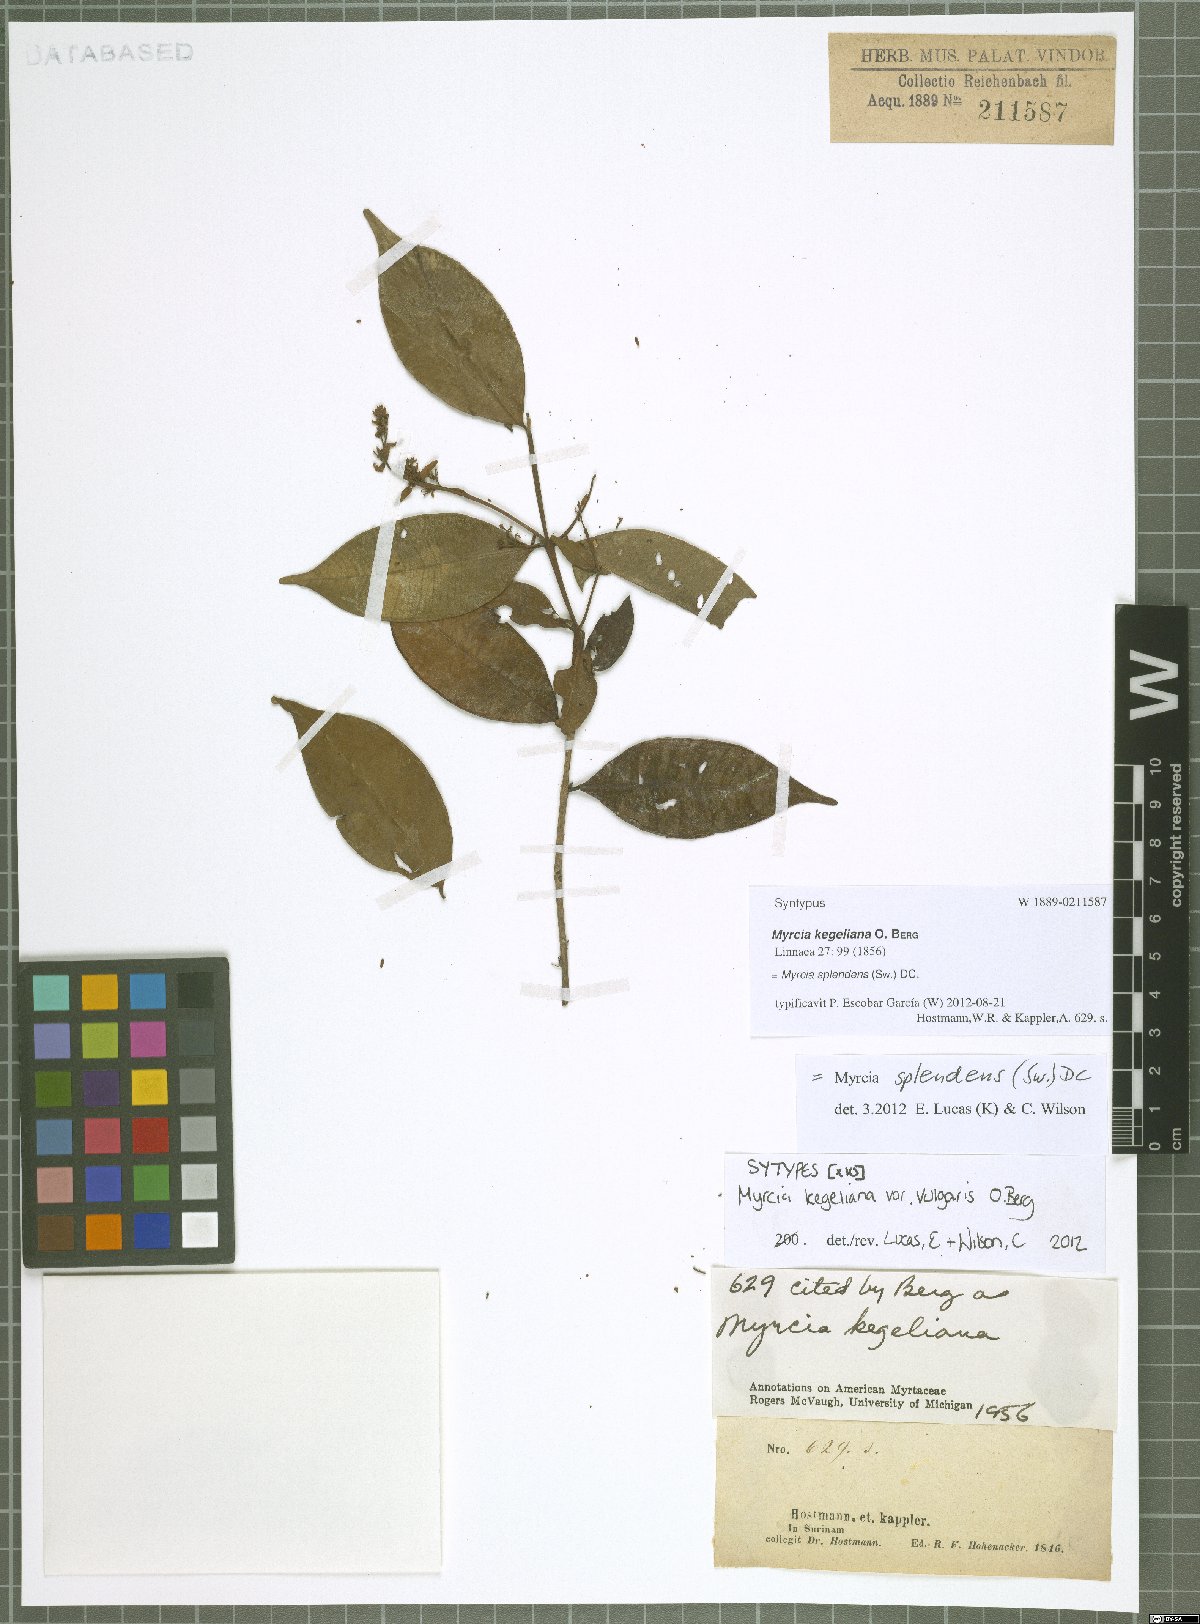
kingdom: Plantae
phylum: Tracheophyta
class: Magnoliopsida
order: Myrtales
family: Myrtaceae
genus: Myrcia
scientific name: Myrcia splendens
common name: Surinam cherry
